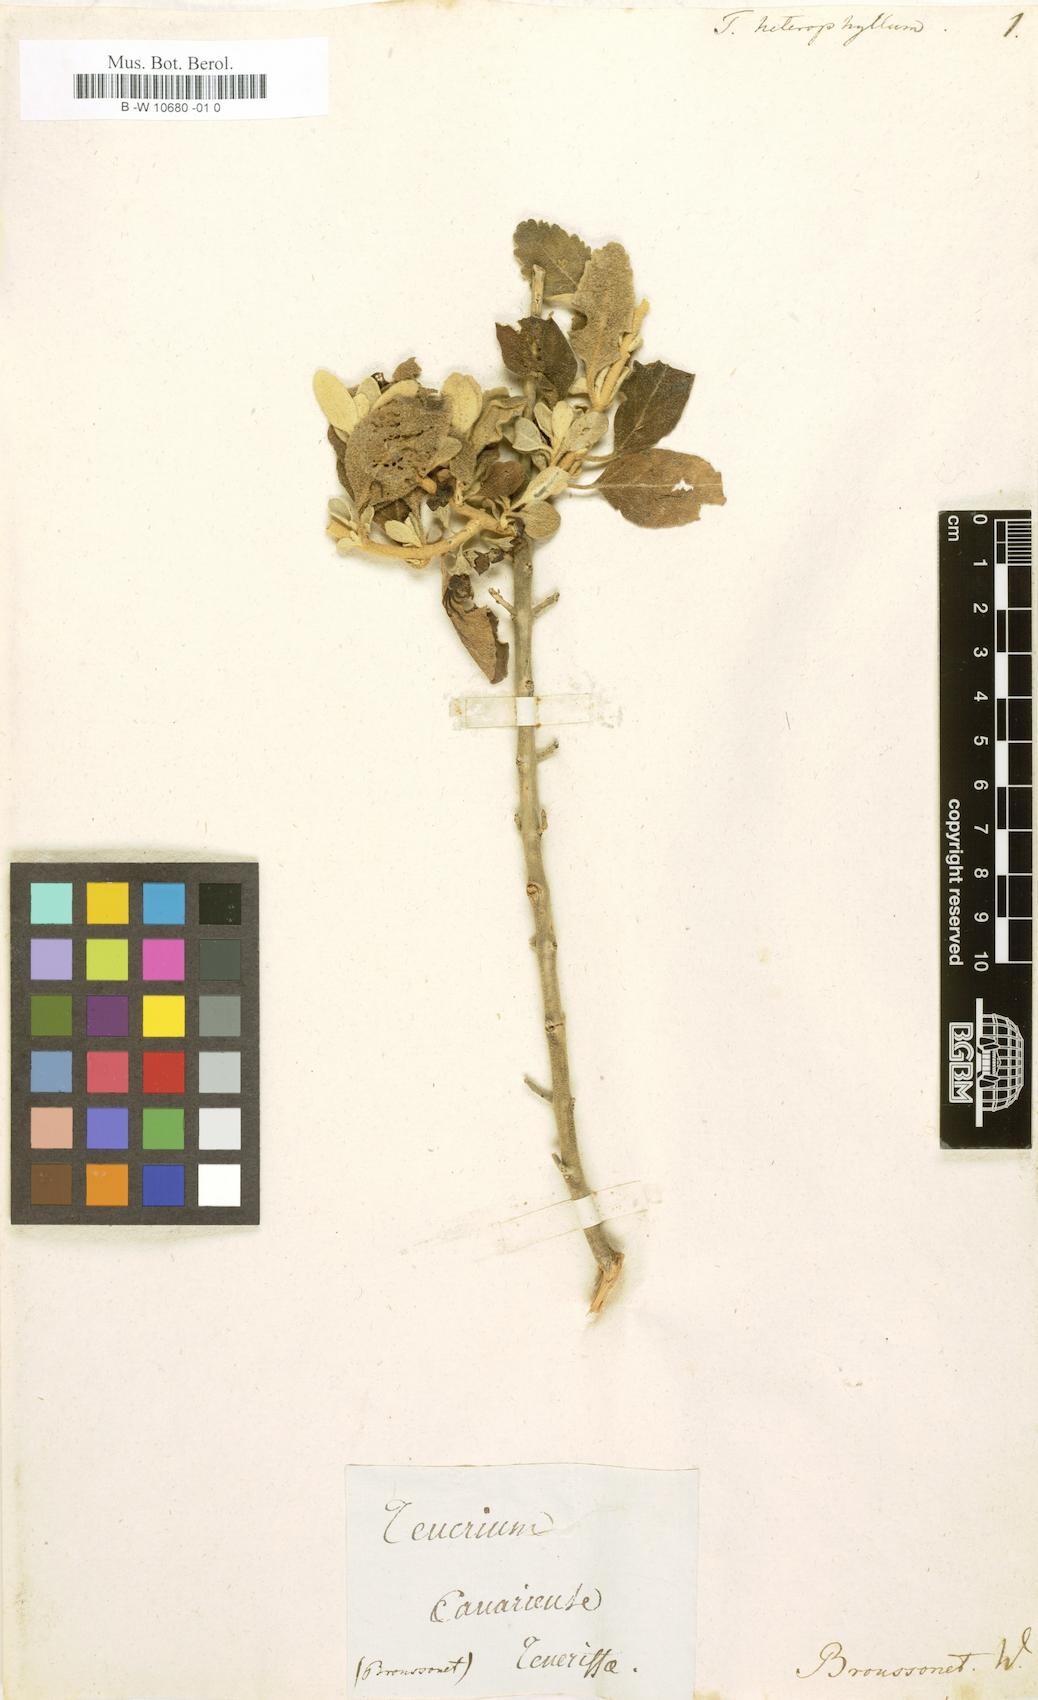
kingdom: Plantae
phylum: Tracheophyta
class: Magnoliopsida
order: Lamiales
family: Lamiaceae
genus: Teucrium
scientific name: Teucrium heterophyllum
